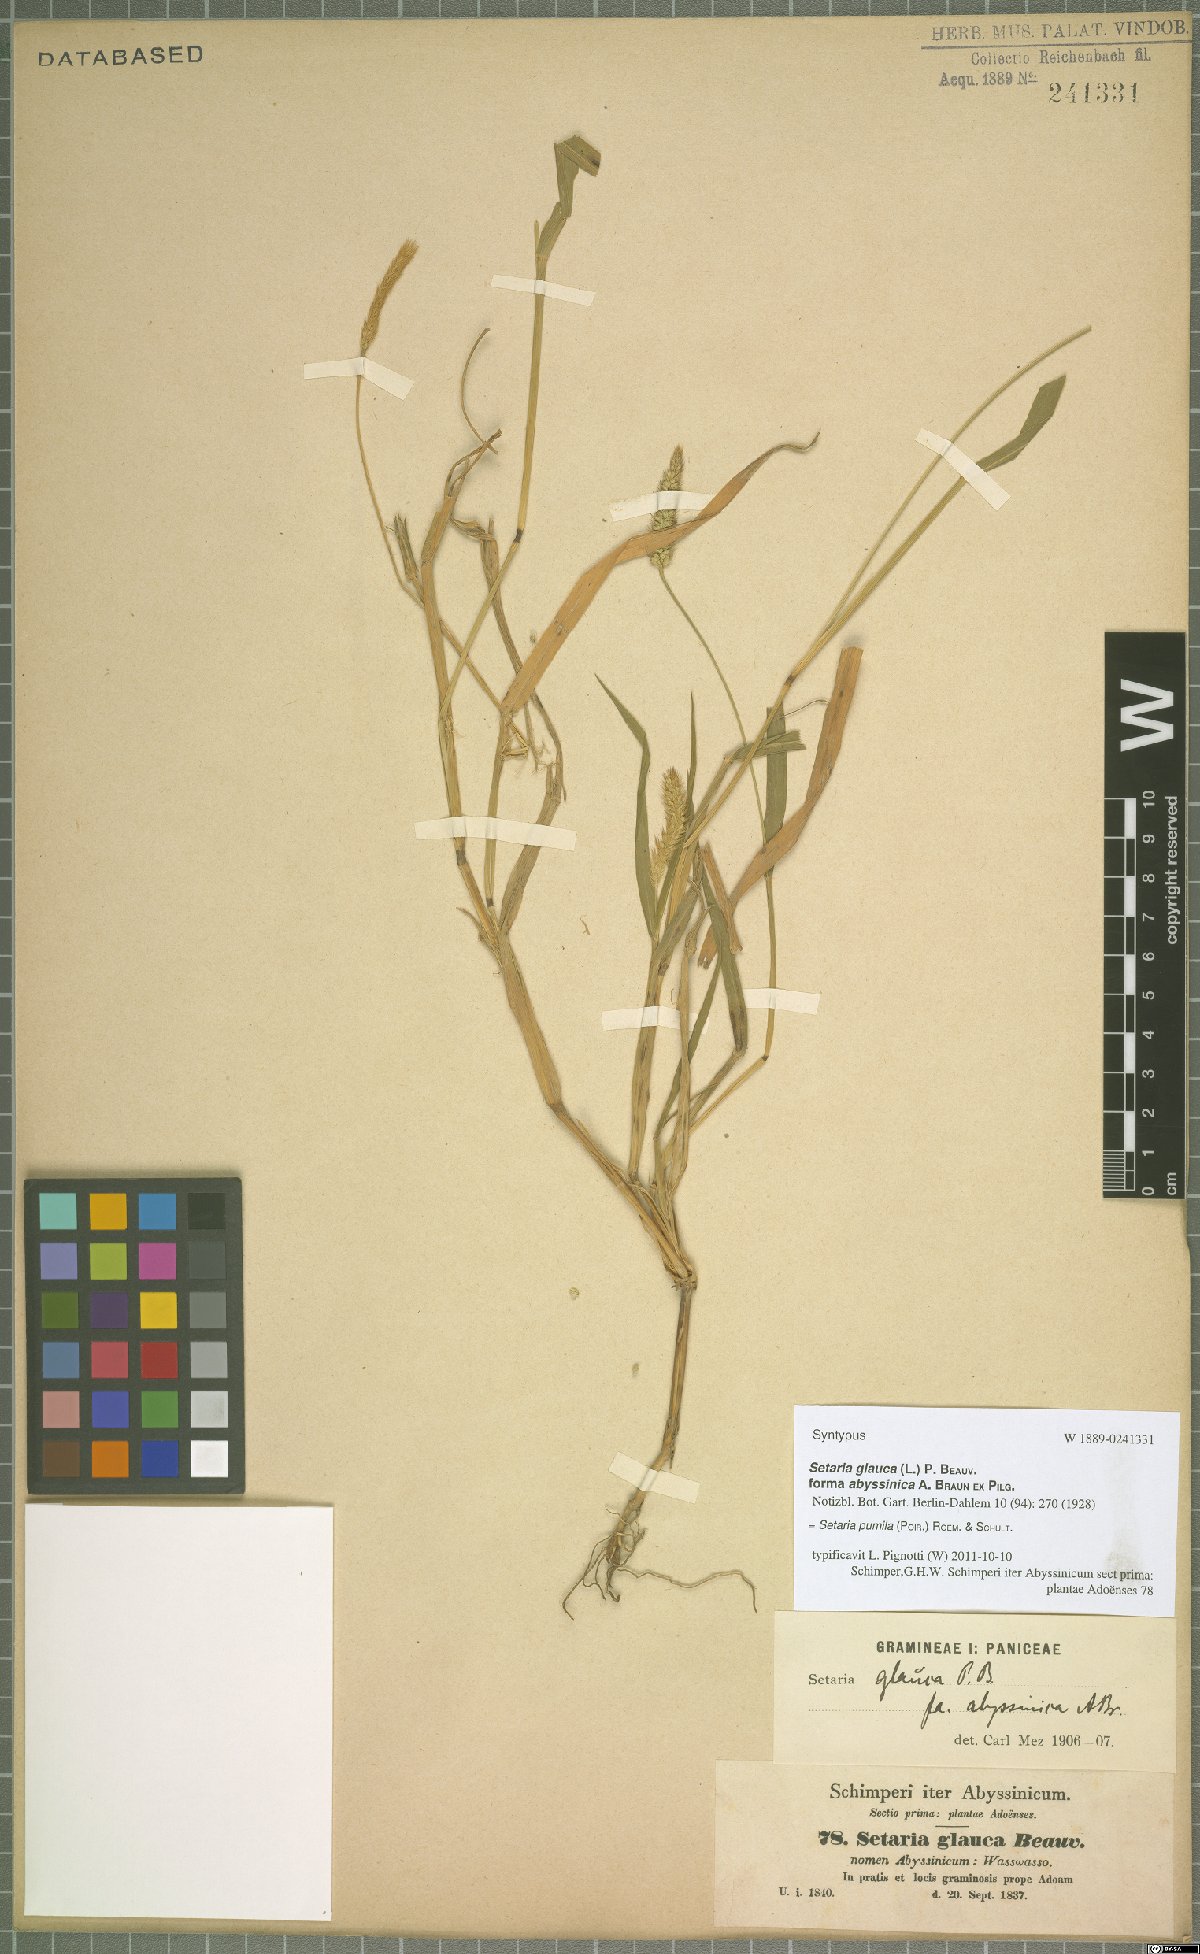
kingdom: Plantae
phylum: Tracheophyta
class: Liliopsida
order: Poales
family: Poaceae
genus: Setaria
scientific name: Setaria pumila
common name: Yellow bristle-grass
